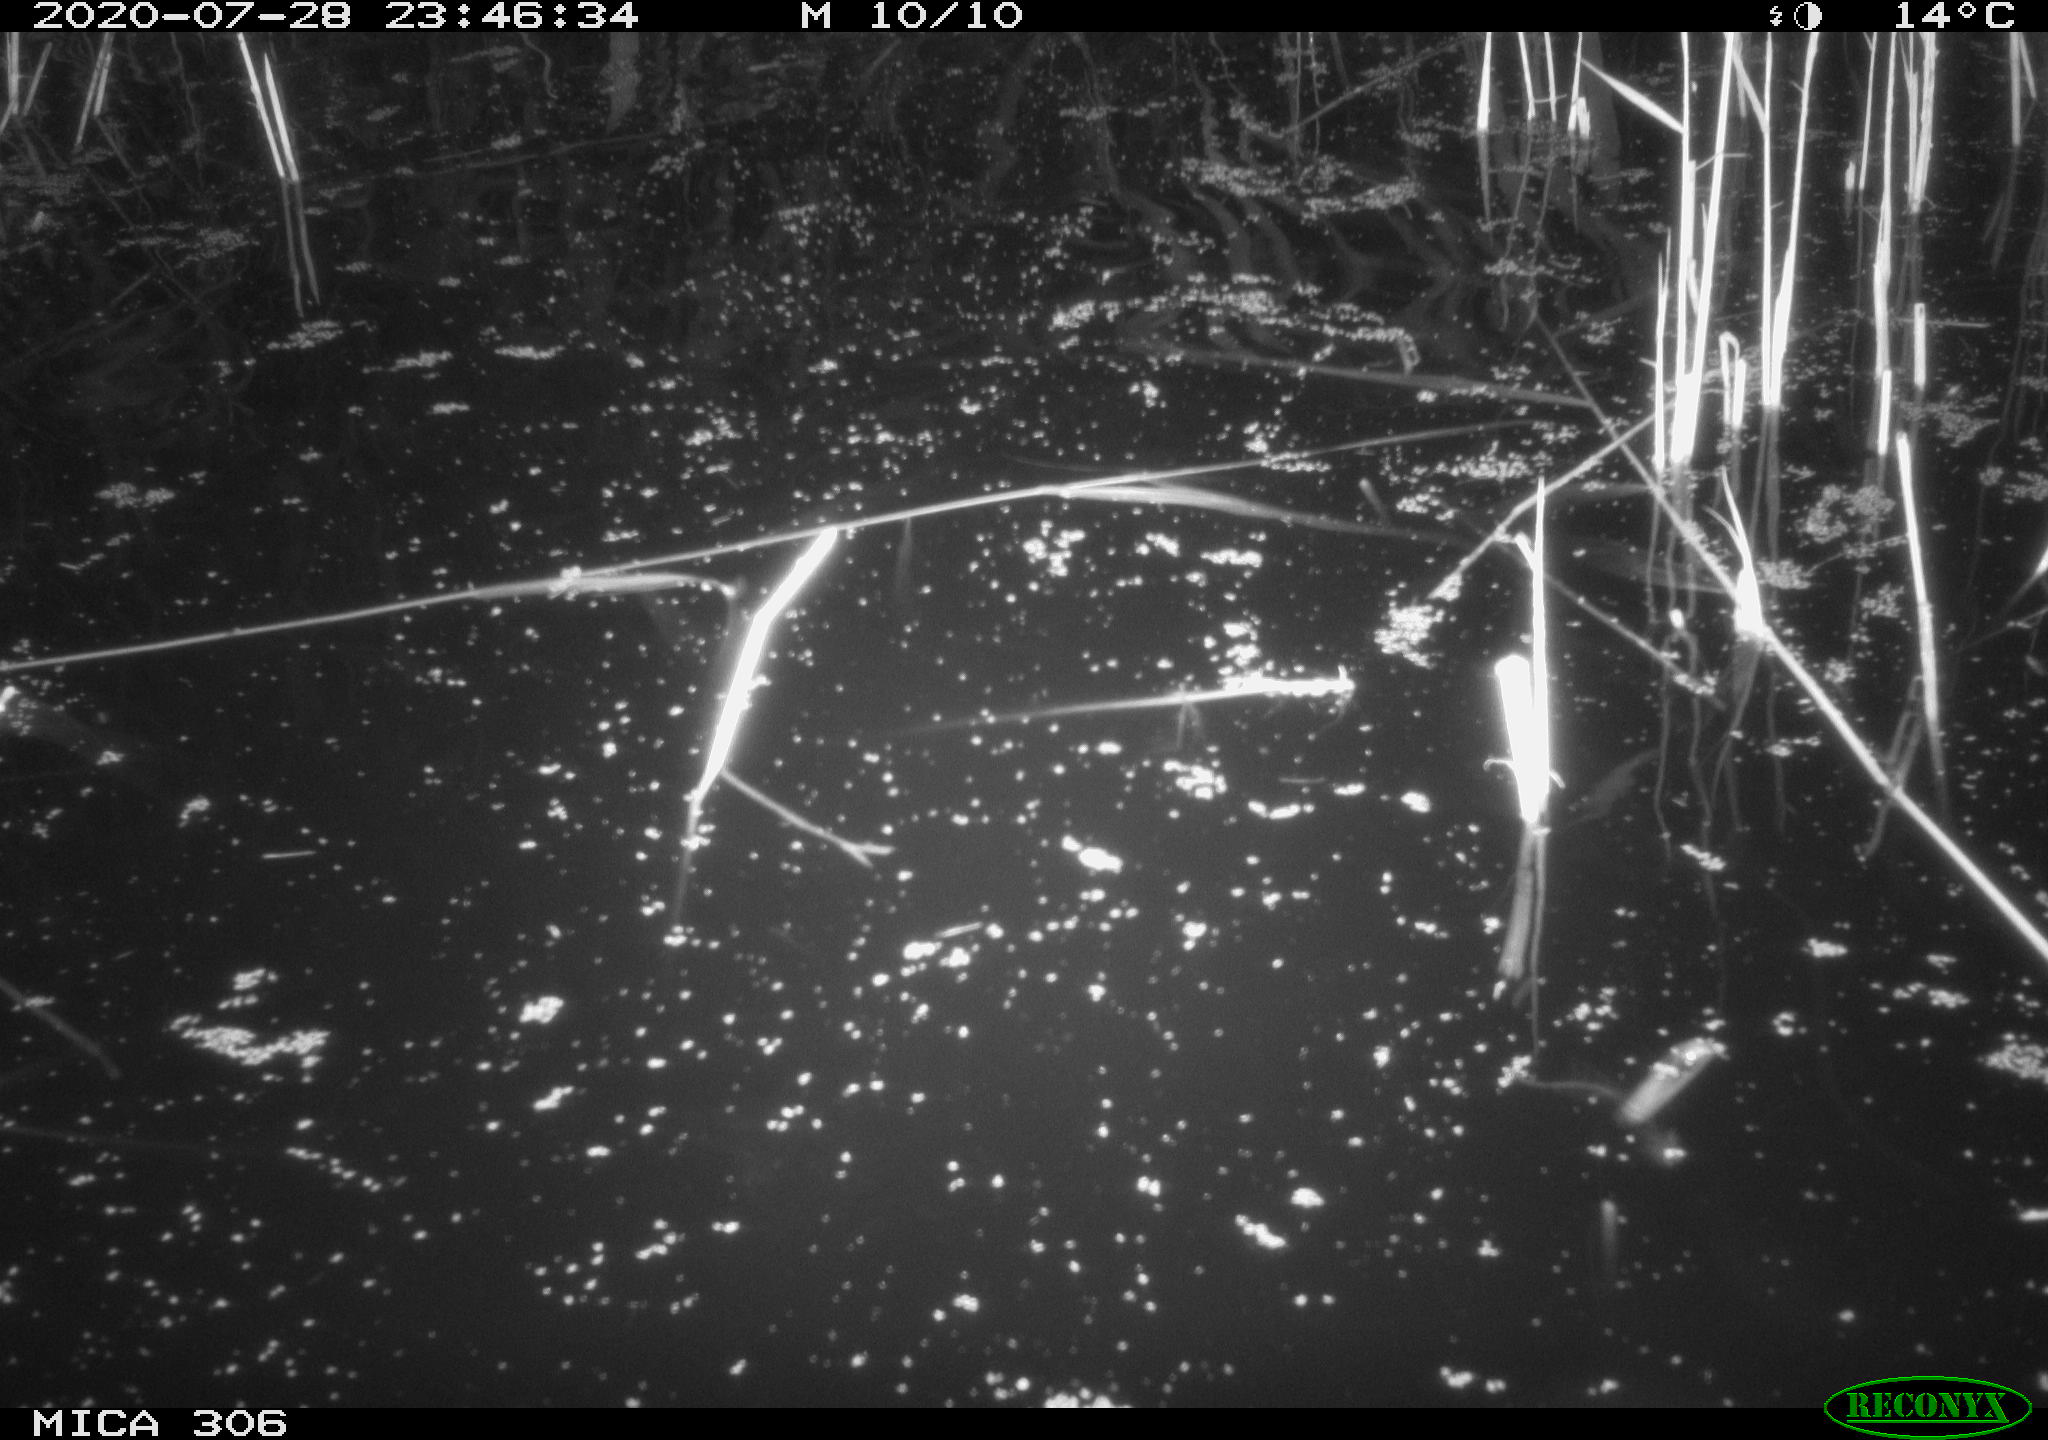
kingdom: Animalia
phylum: Chordata
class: Mammalia
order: Rodentia
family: Muridae
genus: Rattus
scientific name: Rattus norvegicus
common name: Brown rat
